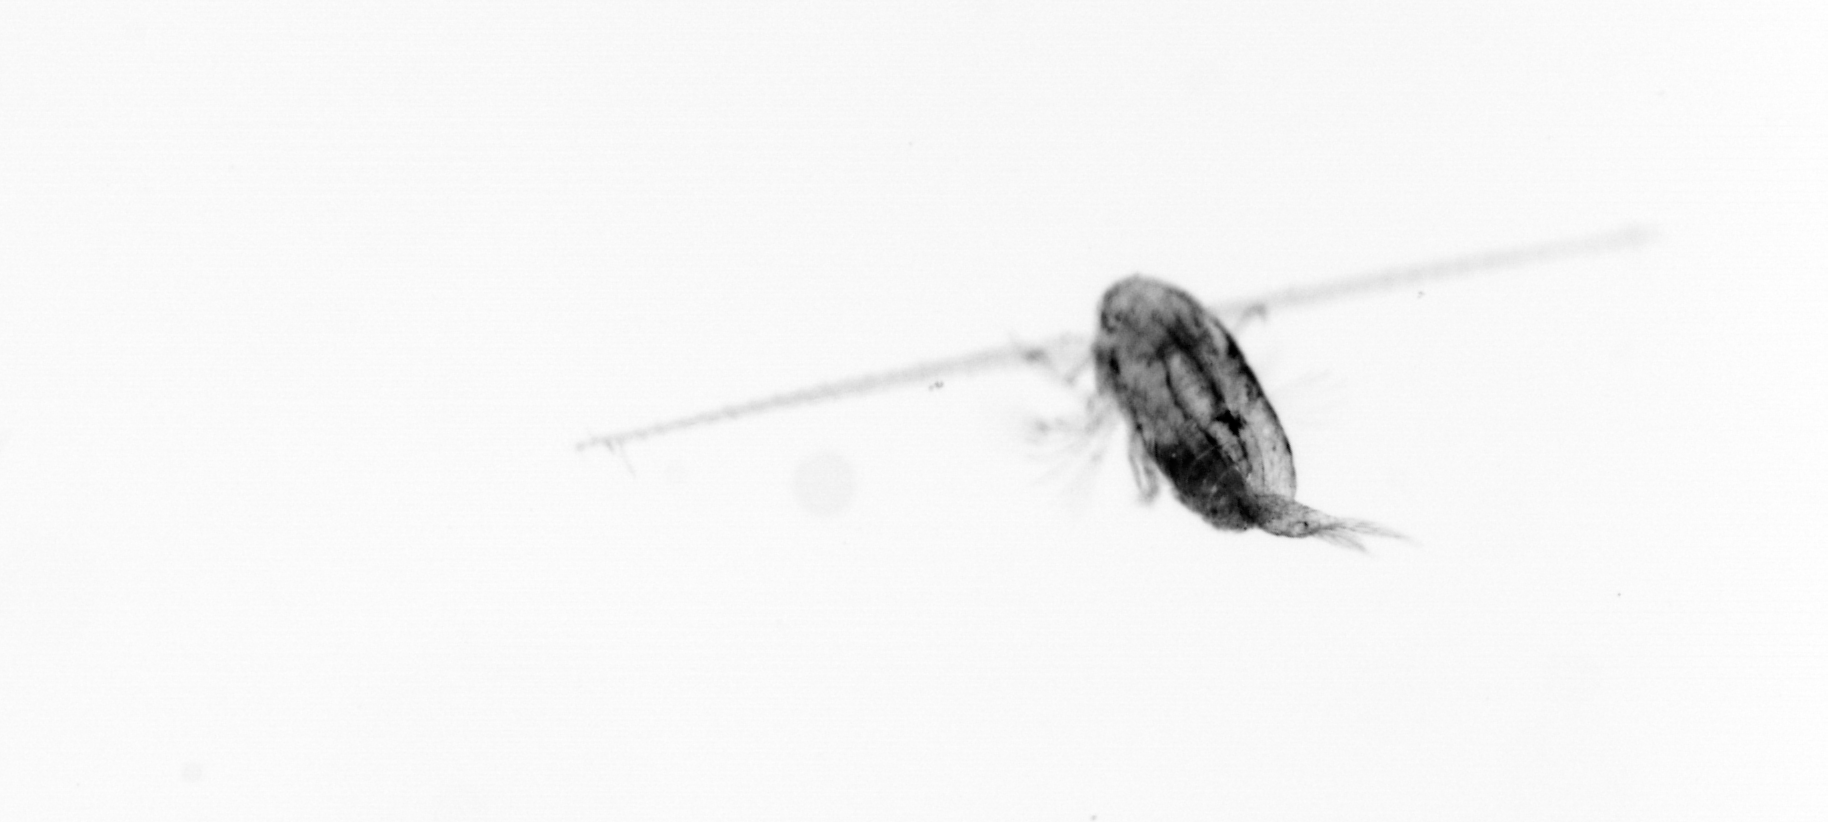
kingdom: Animalia
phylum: Arthropoda
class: Copepoda
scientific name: Copepoda
